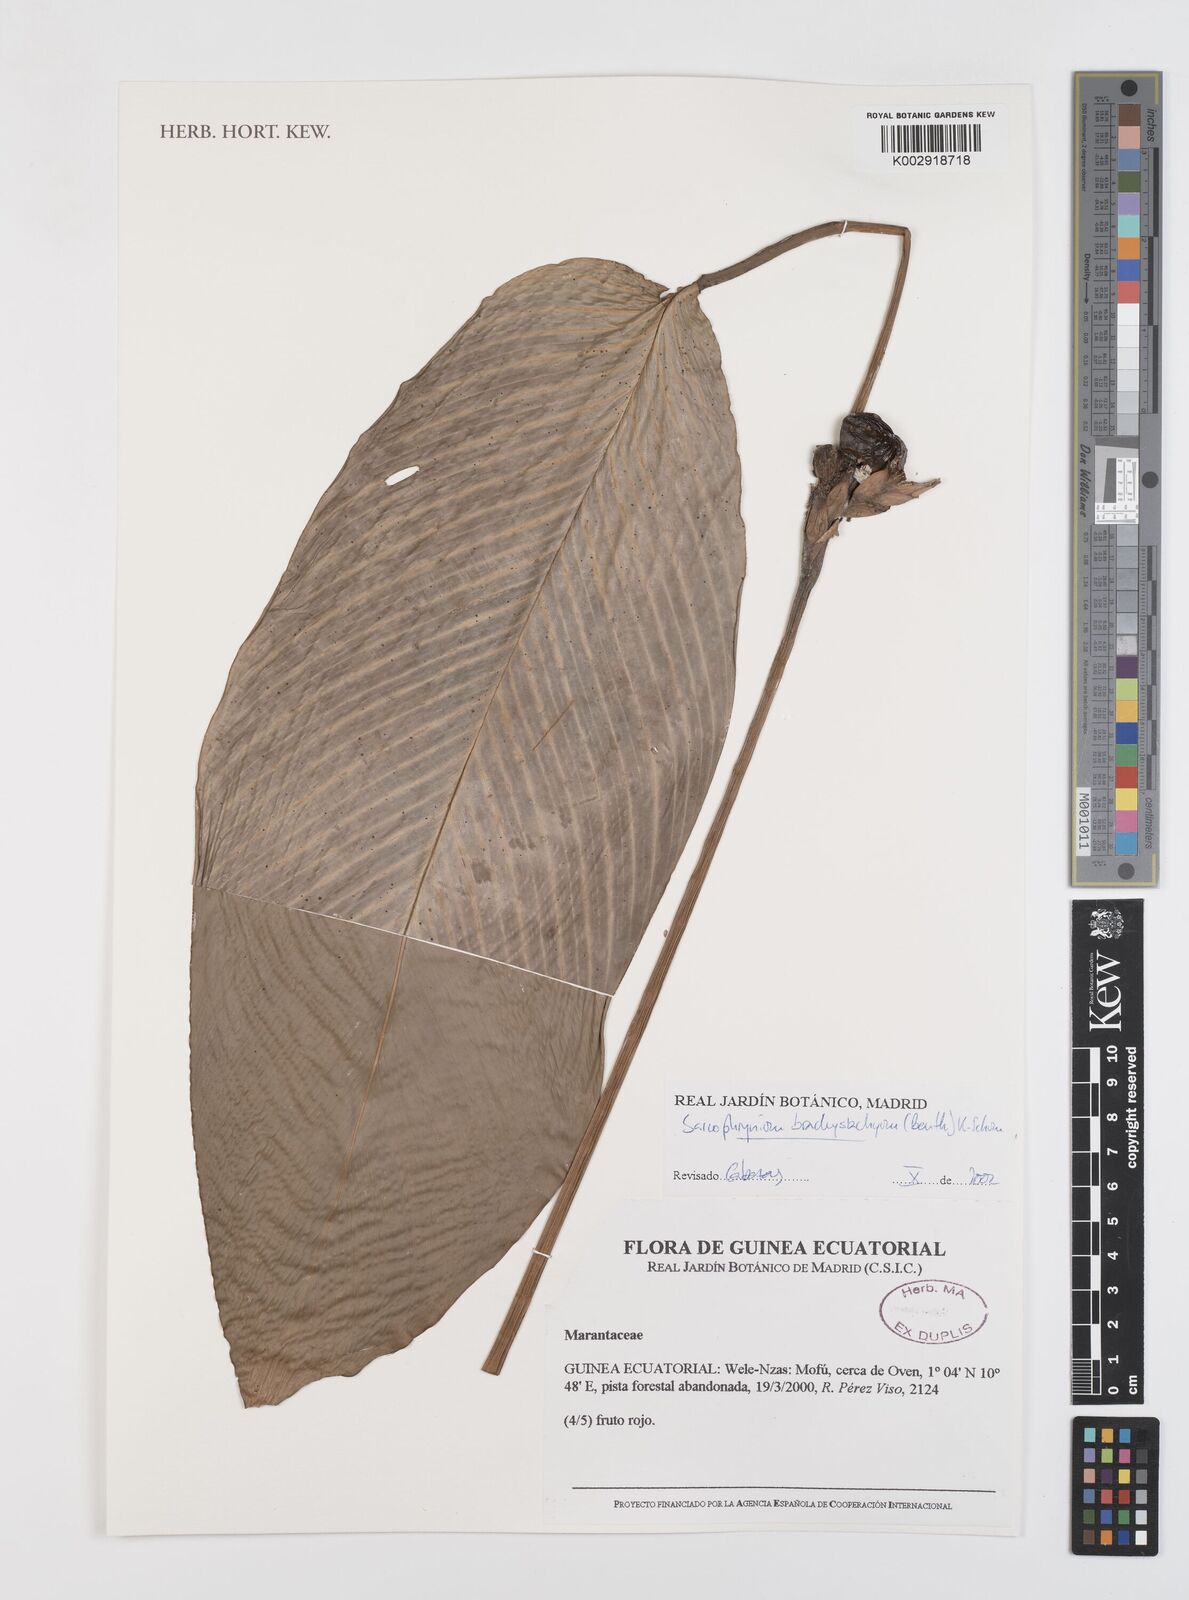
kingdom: Plantae
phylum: Tracheophyta
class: Liliopsida
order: Zingiberales
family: Marantaceae
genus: Sarcophrynium
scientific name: Sarcophrynium brachystachyum
